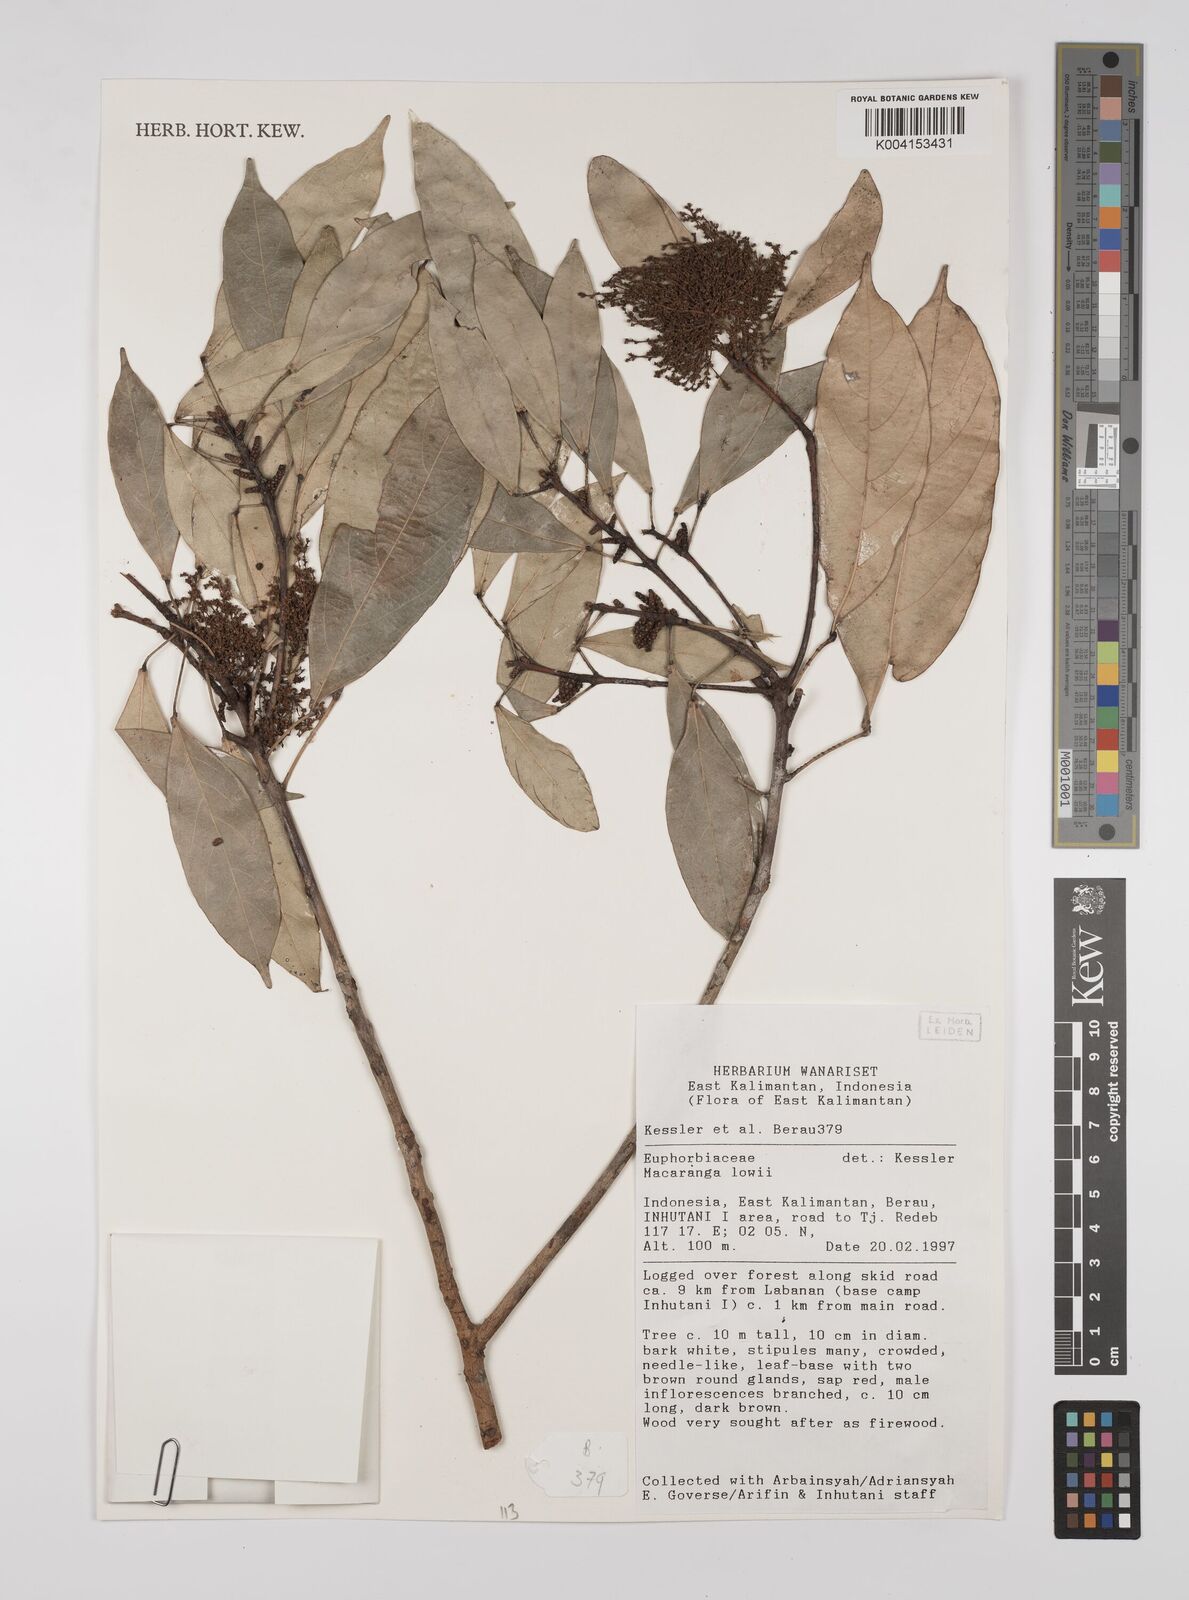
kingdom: Plantae
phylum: Tracheophyta
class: Magnoliopsida
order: Malpighiales
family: Euphorbiaceae
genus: Macaranga
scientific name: Macaranga lowii
